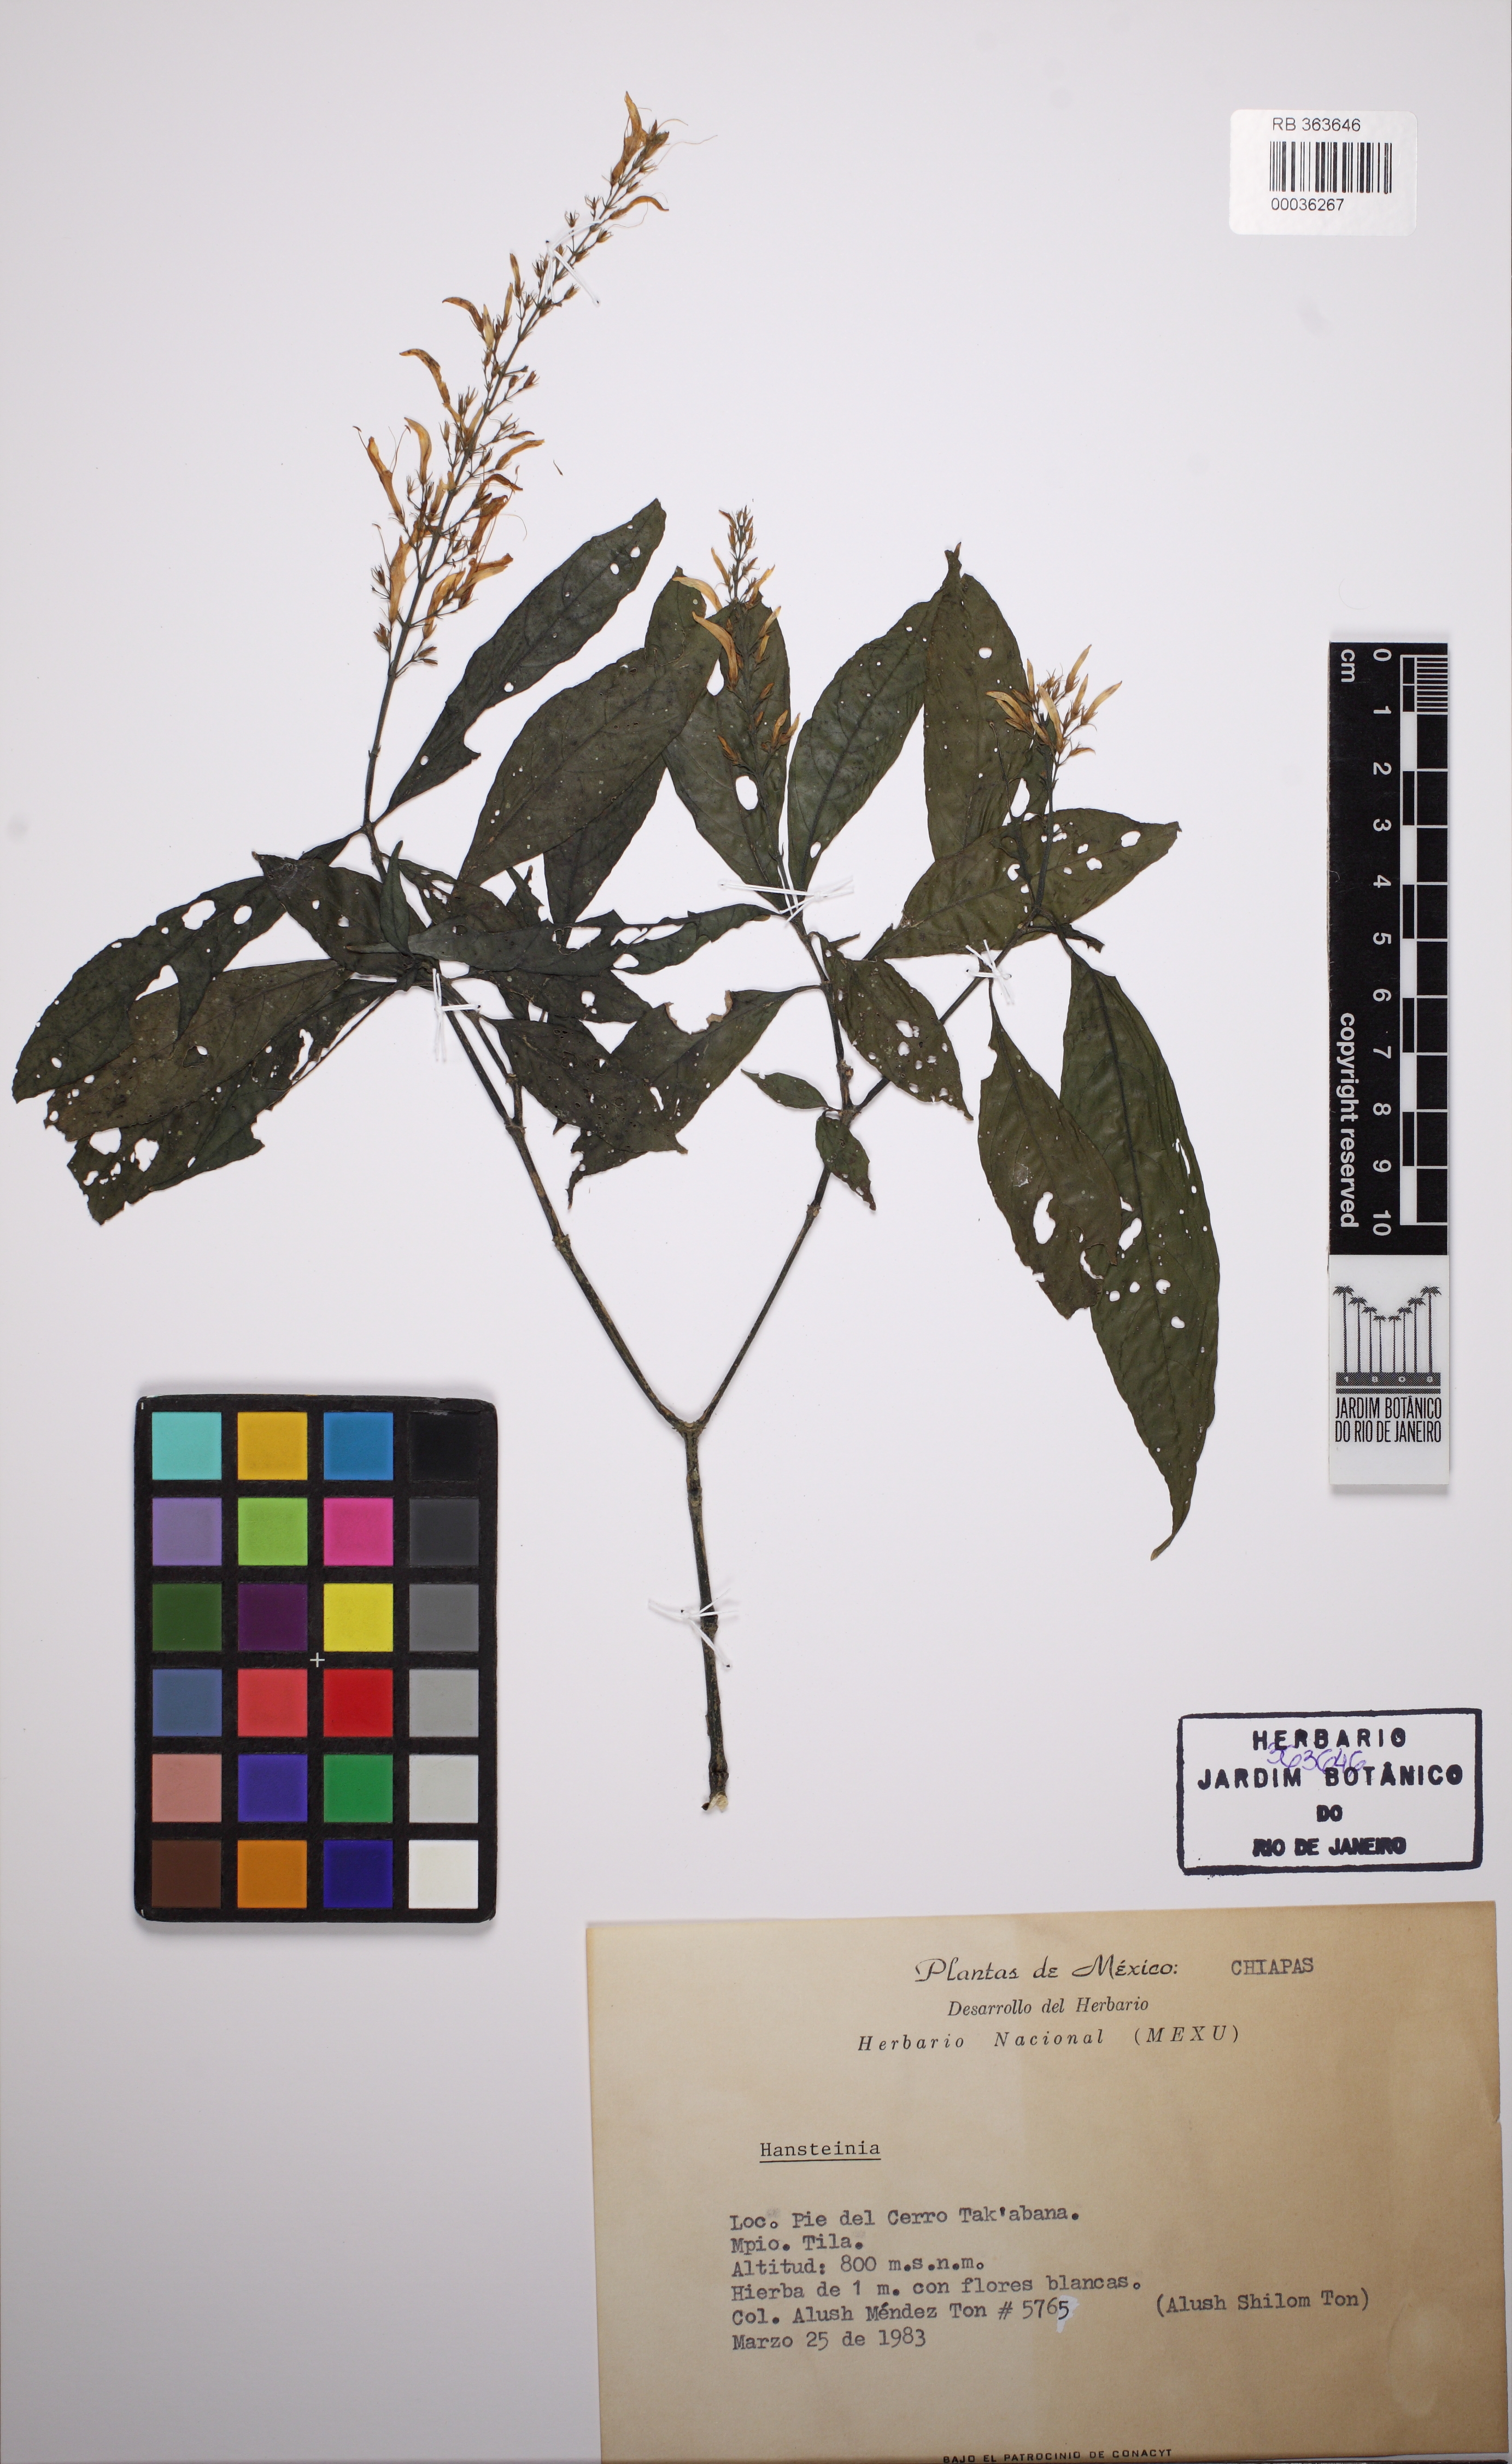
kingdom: Plantae
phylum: Tracheophyta
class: Magnoliopsida
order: Lamiales
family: Acanthaceae
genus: Stenostephanus
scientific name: Stenostephanus
